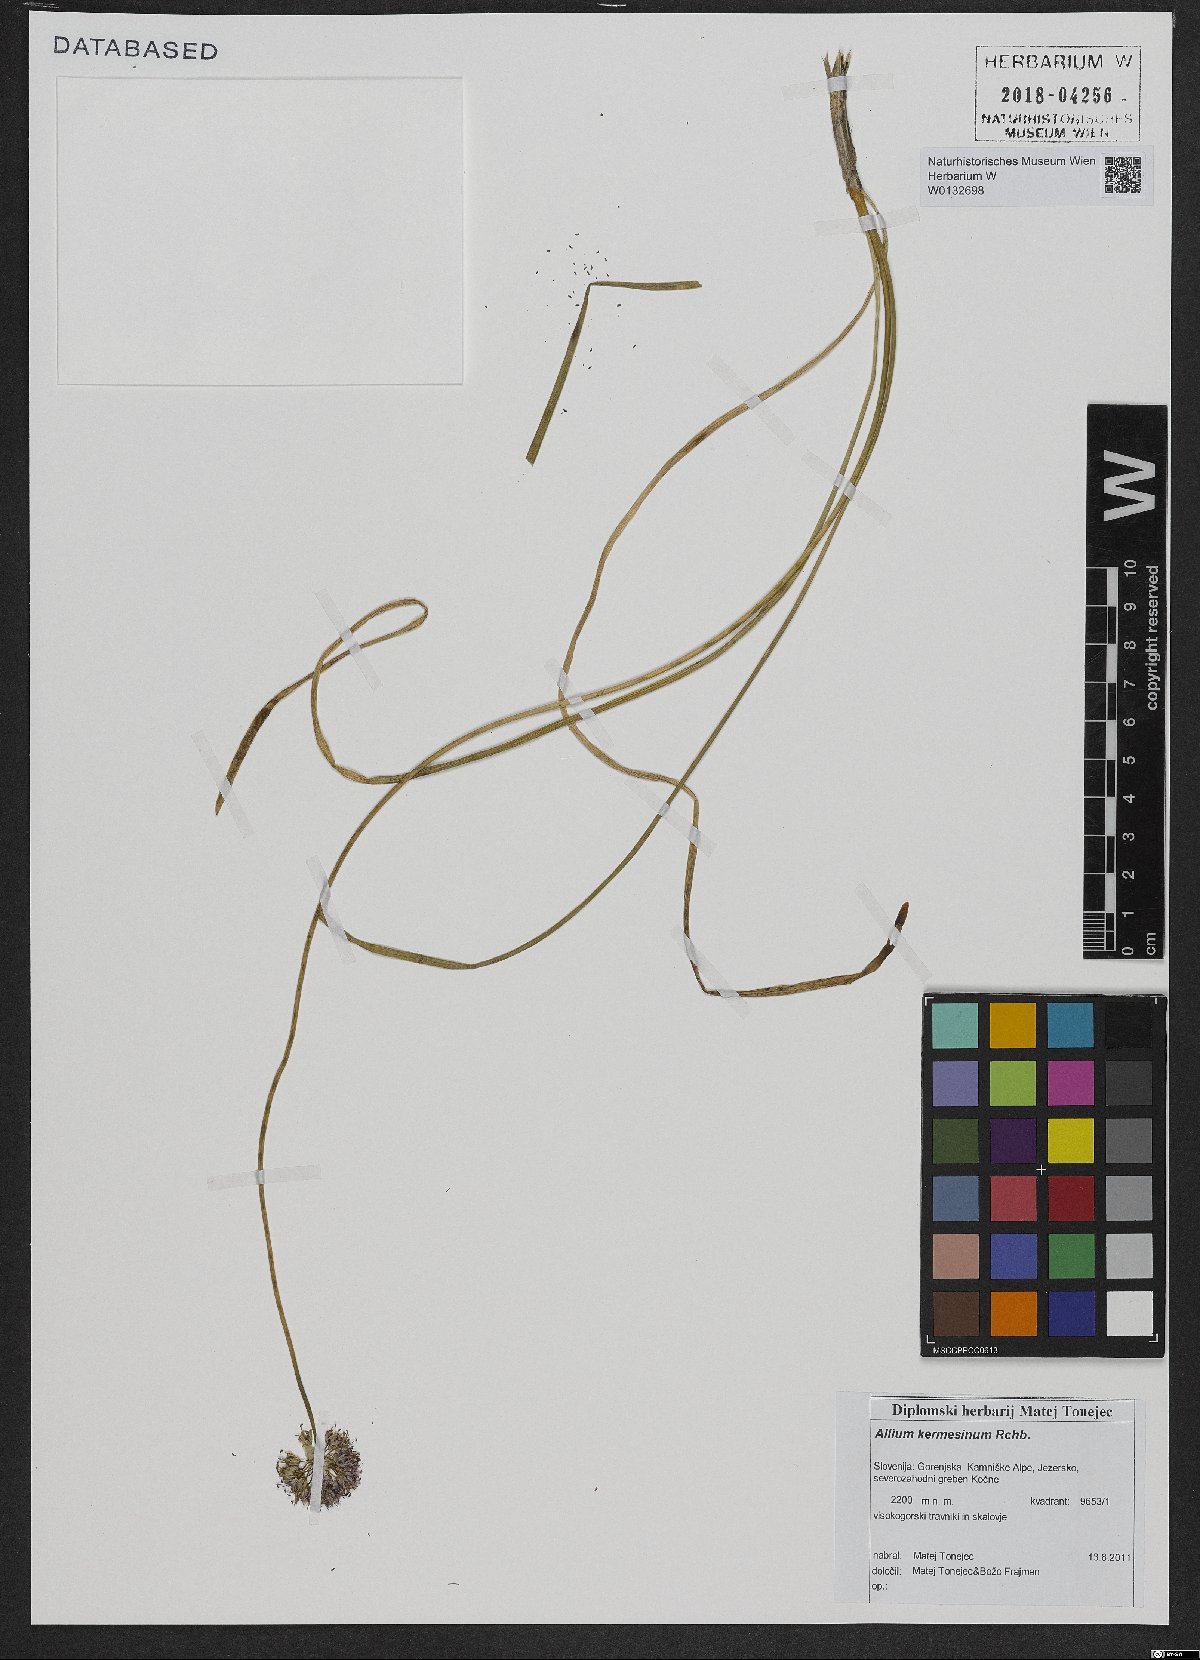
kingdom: Plantae
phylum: Tracheophyta
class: Liliopsida
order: Asparagales
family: Amaryllidaceae
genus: Allium
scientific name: Allium kermesinum
